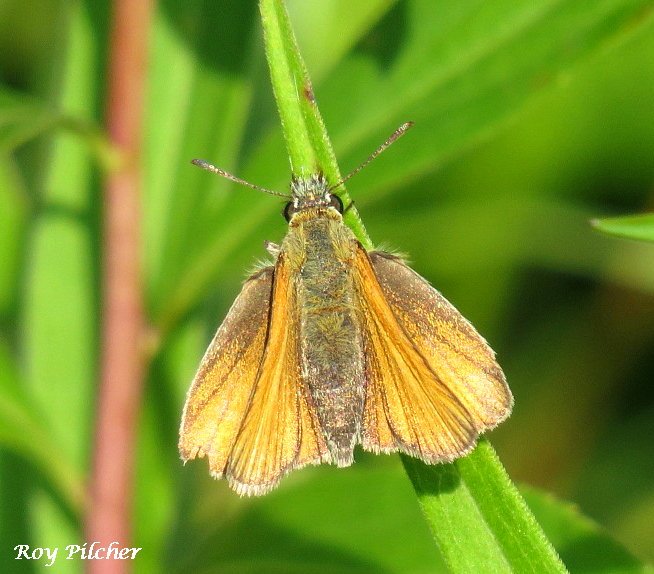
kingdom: Animalia
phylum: Arthropoda
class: Insecta
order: Lepidoptera
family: Hesperiidae
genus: Thymelicus
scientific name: Thymelicus lineola
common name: European Skipper
